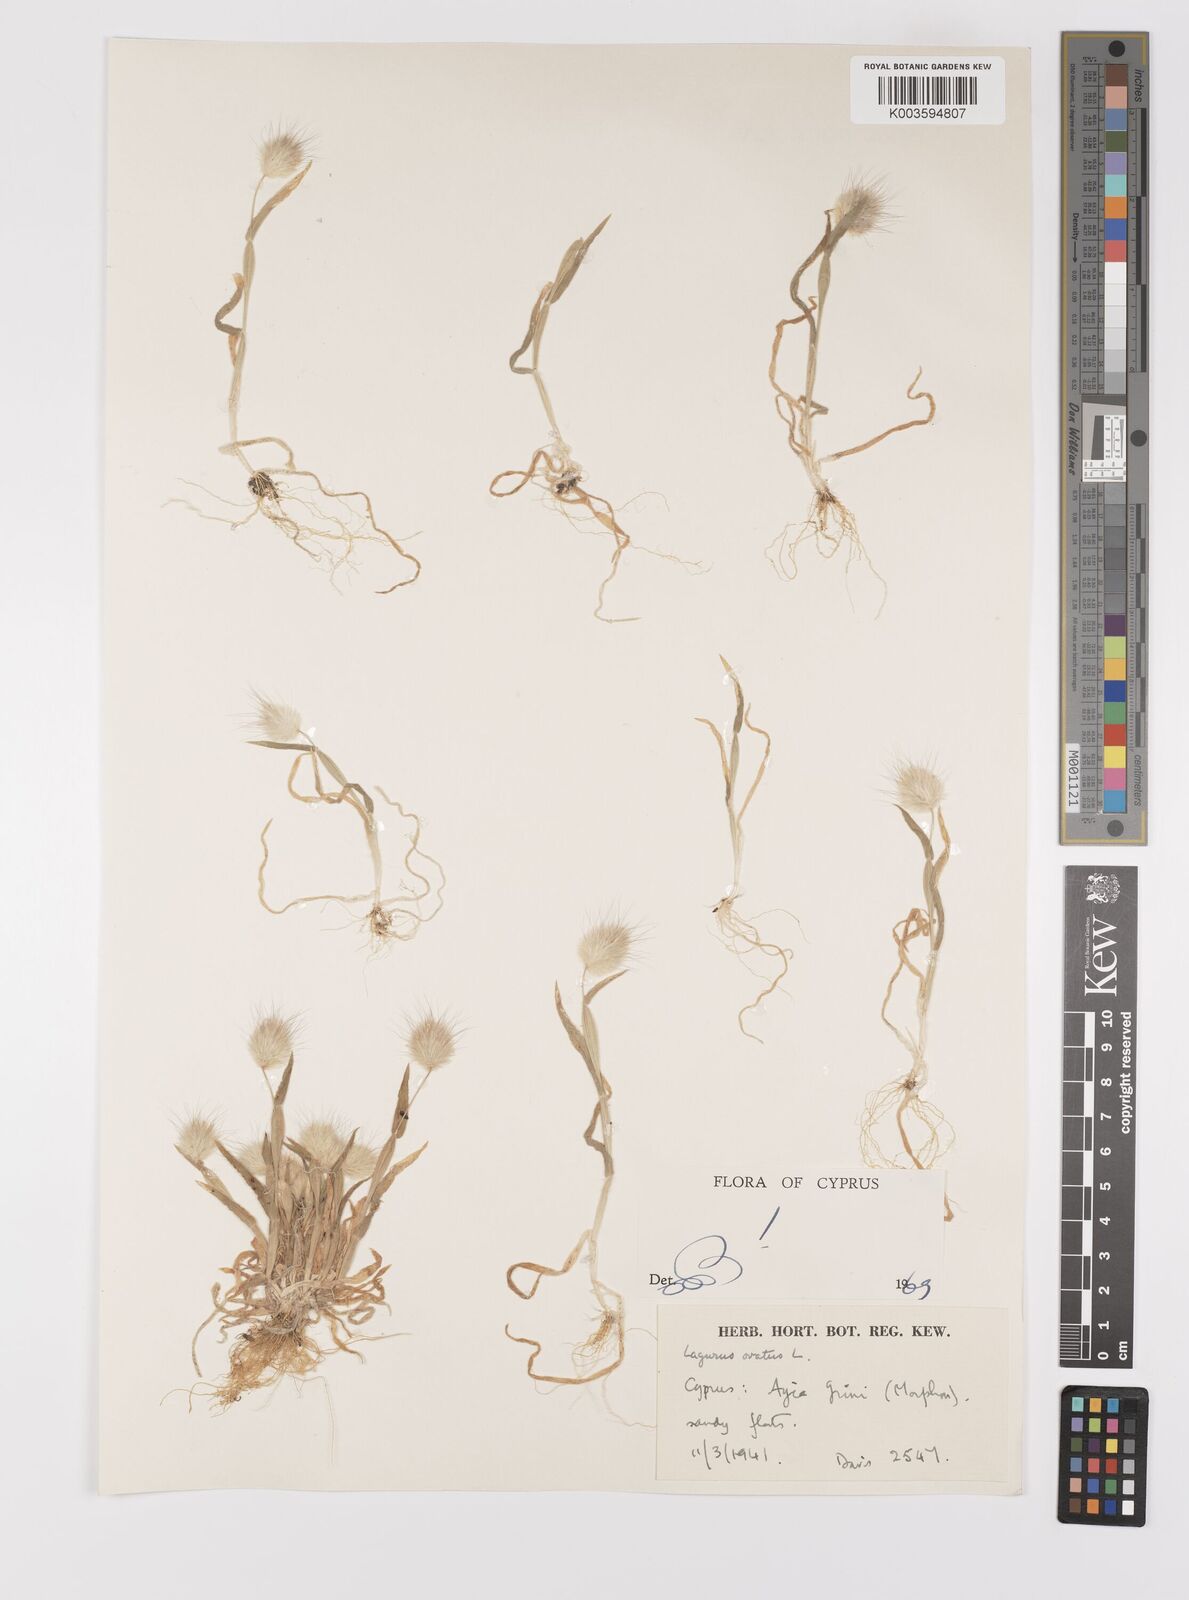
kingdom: Plantae
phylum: Tracheophyta
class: Liliopsida
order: Poales
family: Poaceae
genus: Lagurus
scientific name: Lagurus ovatus
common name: Hare's-tail
